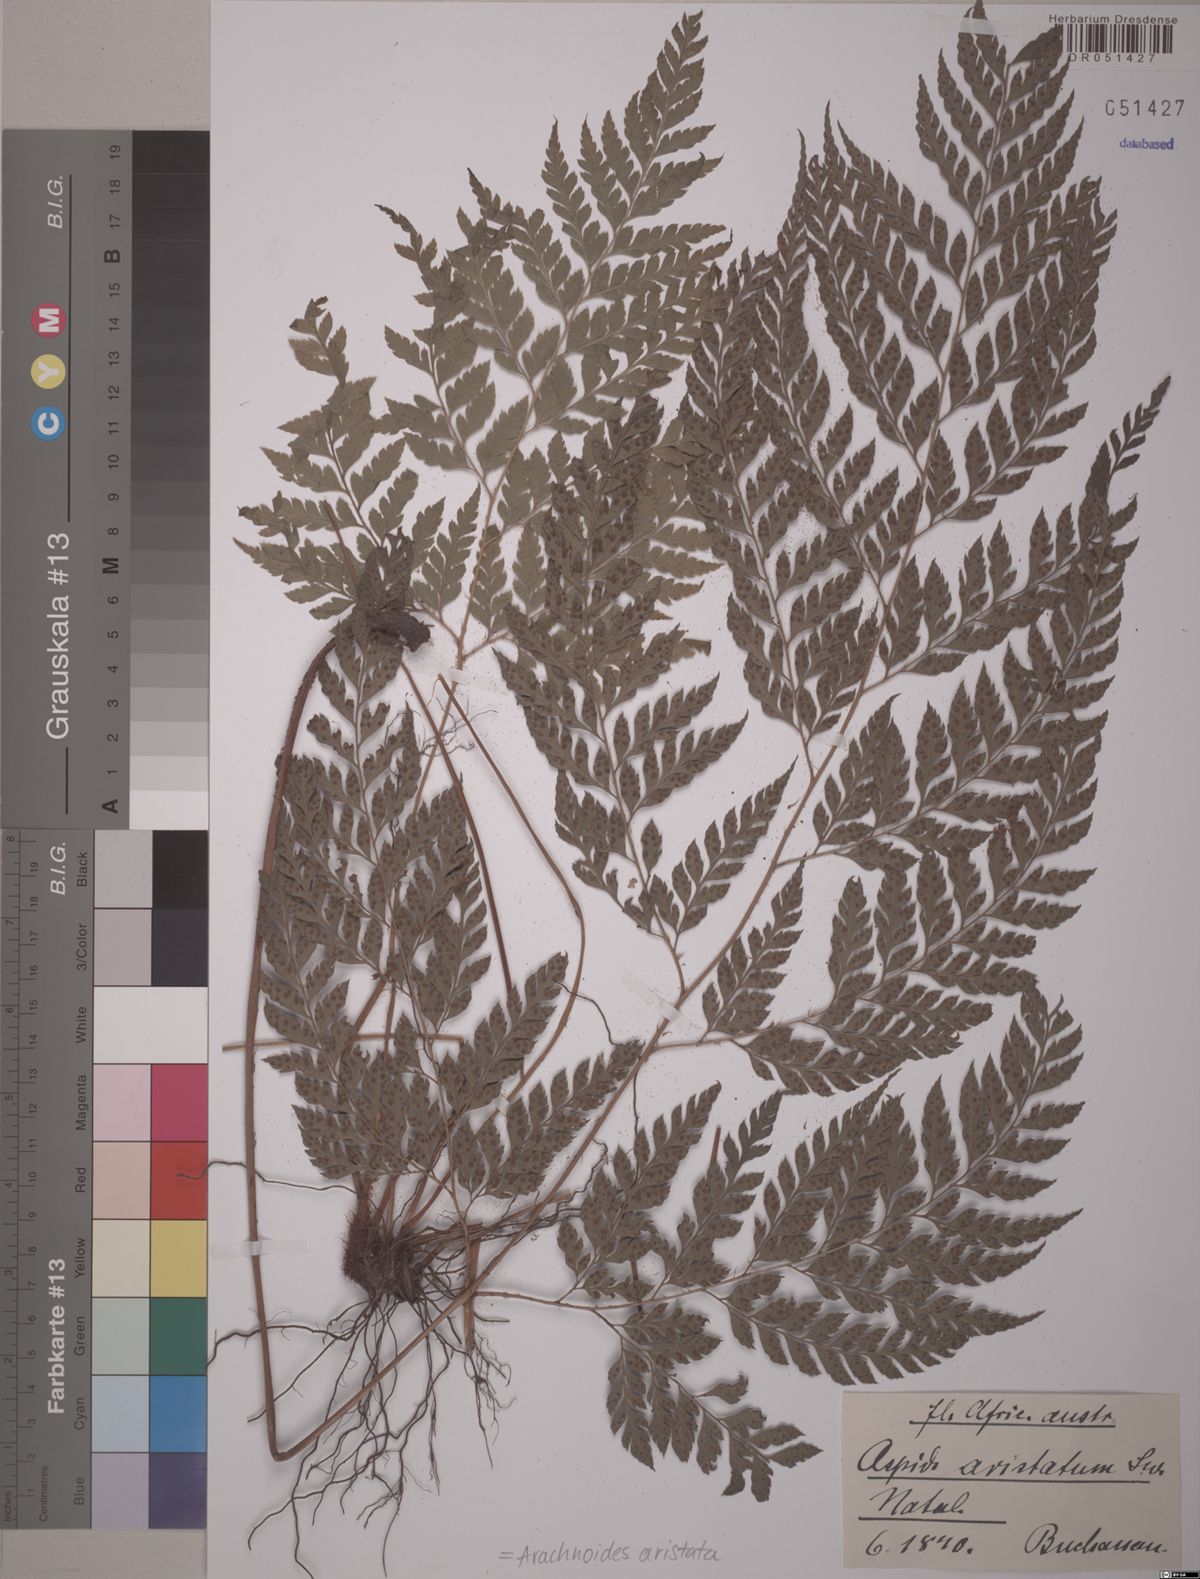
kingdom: Plantae
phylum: Tracheophyta
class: Polypodiopsida
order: Polypodiales
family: Dryopteridaceae
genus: Arachniodes
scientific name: Arachniodes aristata
